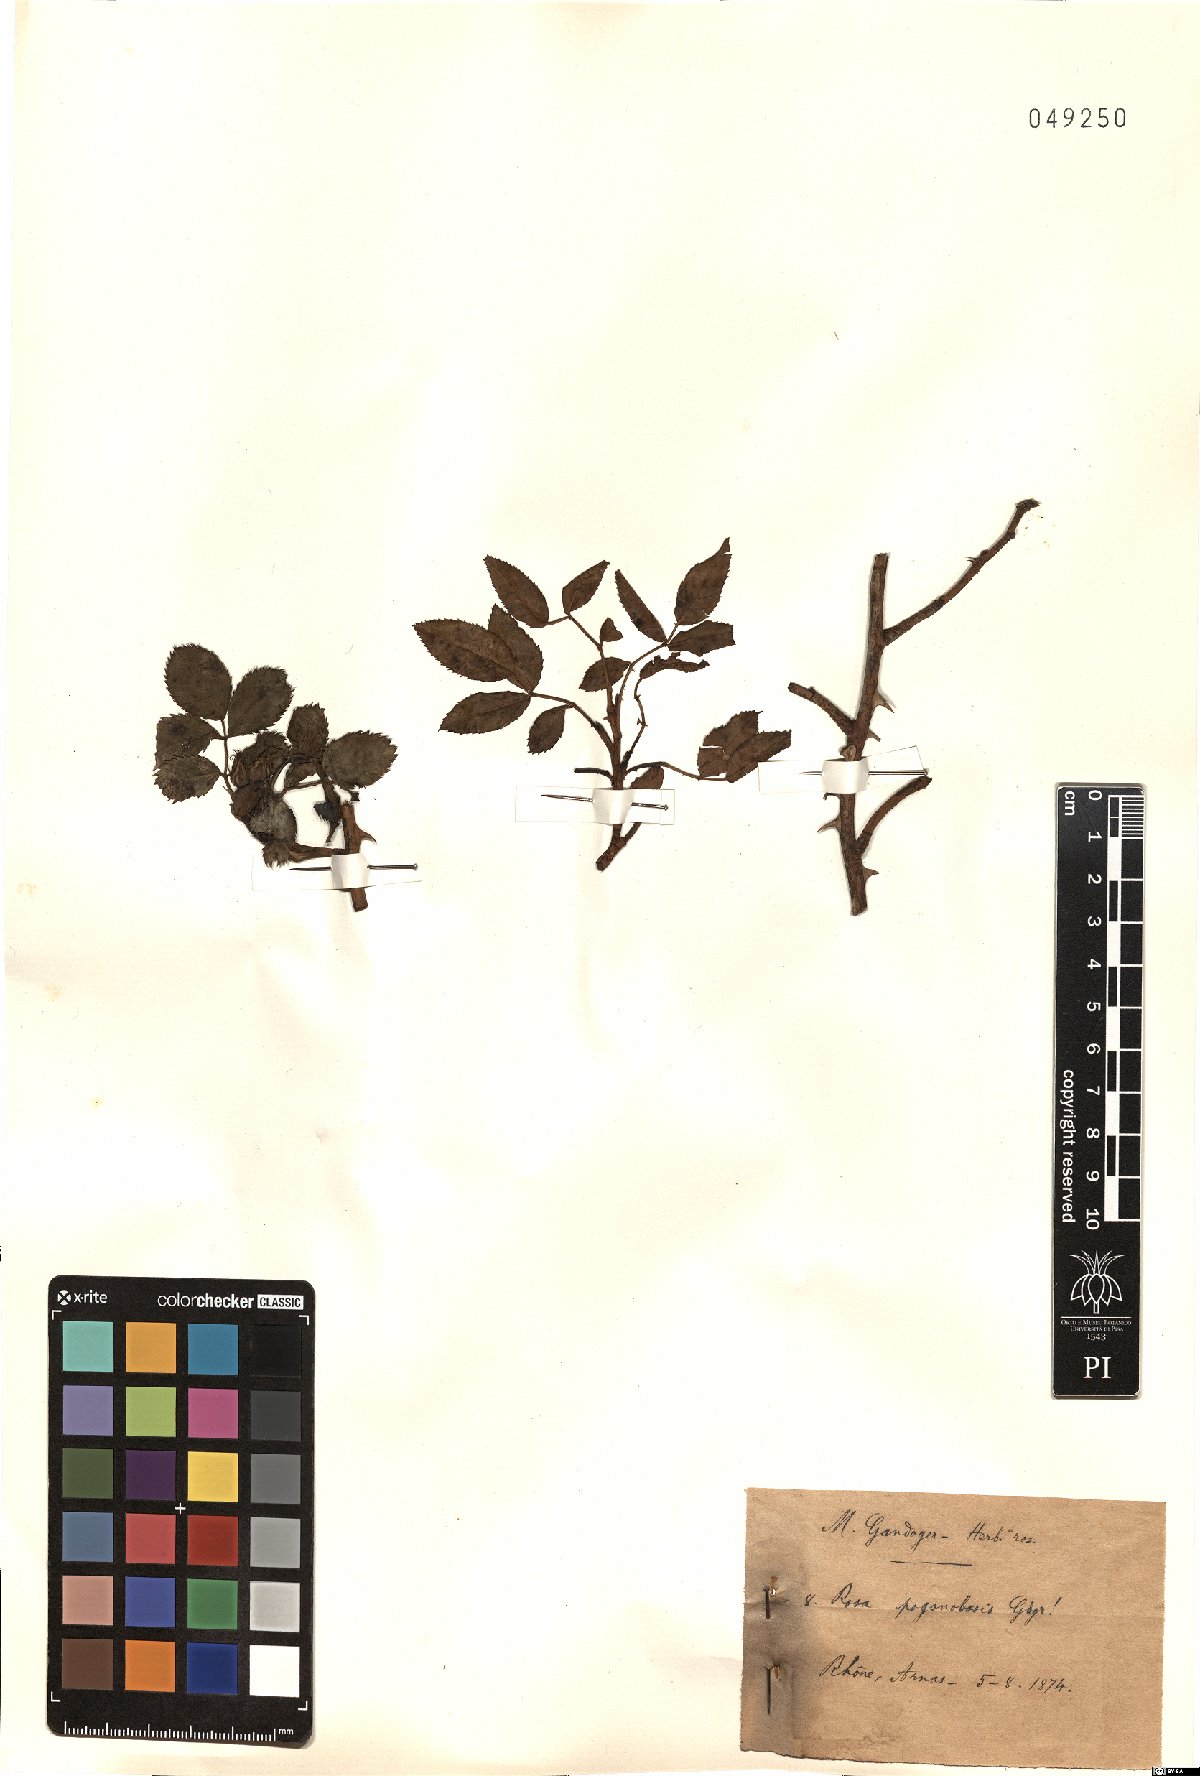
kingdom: Plantae
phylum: Tracheophyta
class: Magnoliopsida
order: Rosales
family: Rosaceae
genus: Rosa
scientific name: Rosa pogonobasis
